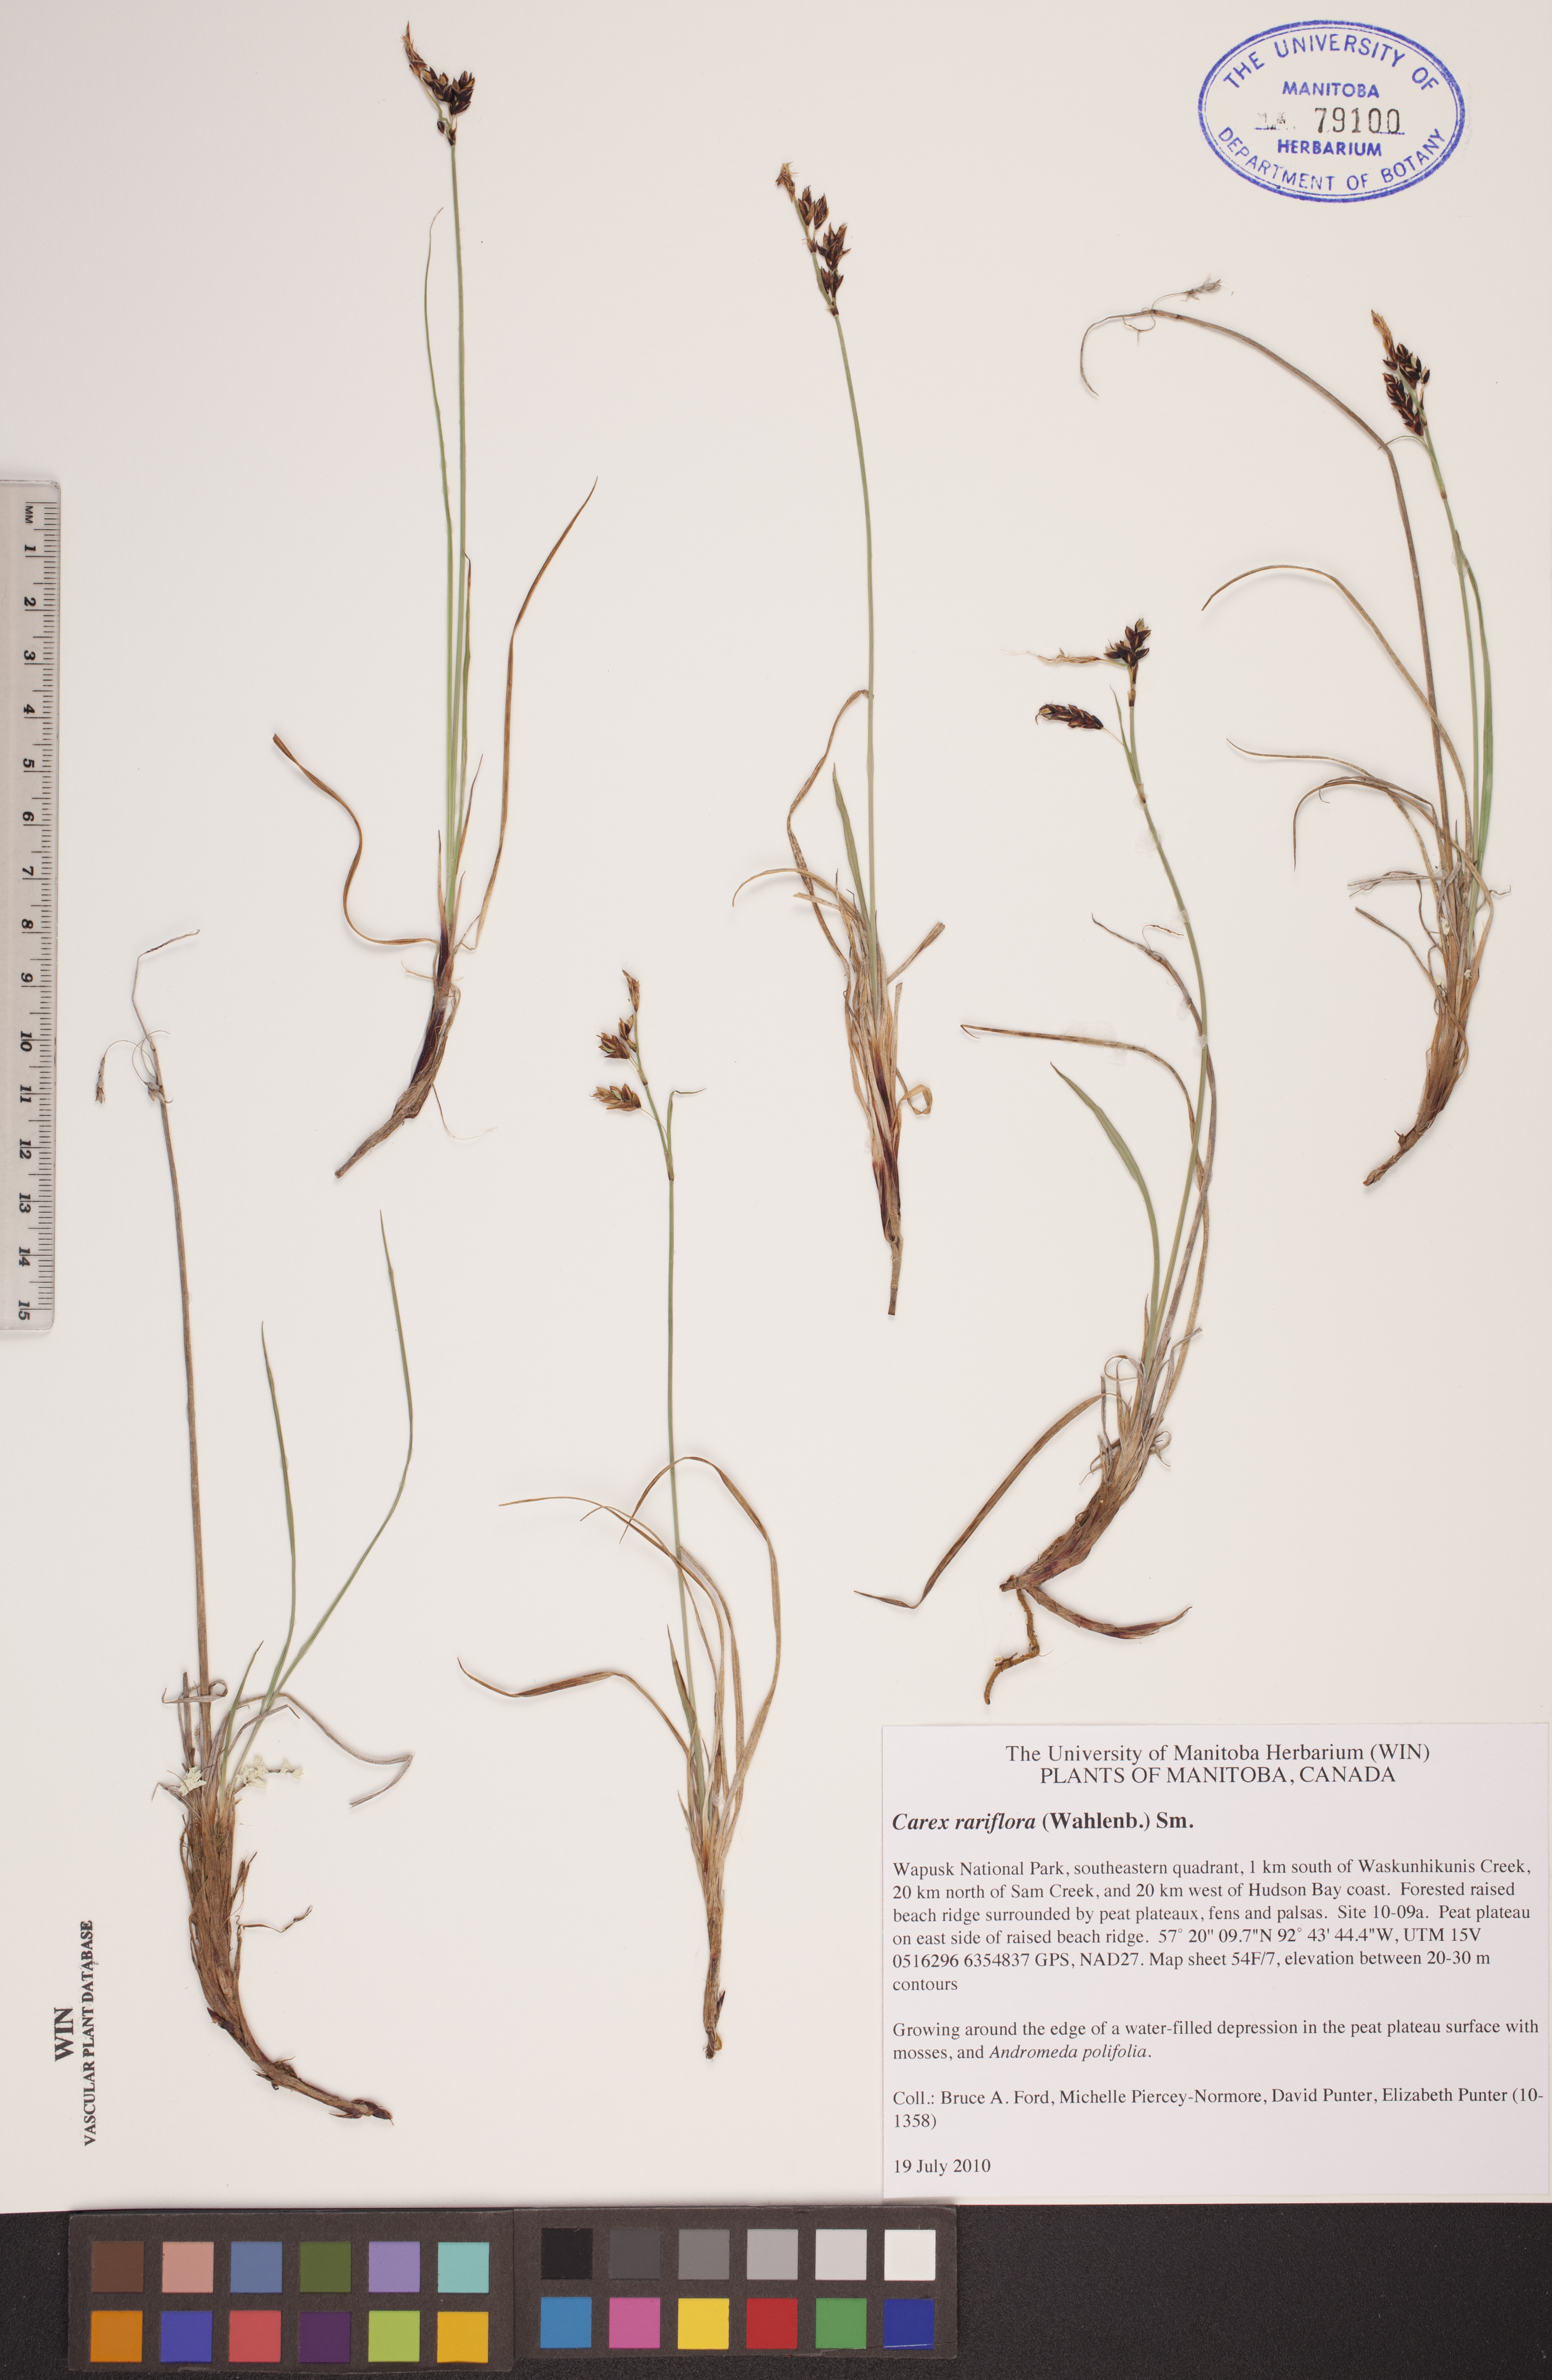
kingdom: Plantae
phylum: Tracheophyta
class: Liliopsida
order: Poales
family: Cyperaceae
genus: Carex
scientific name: Carex rariflora
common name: Loose-flowered alpine sedge
